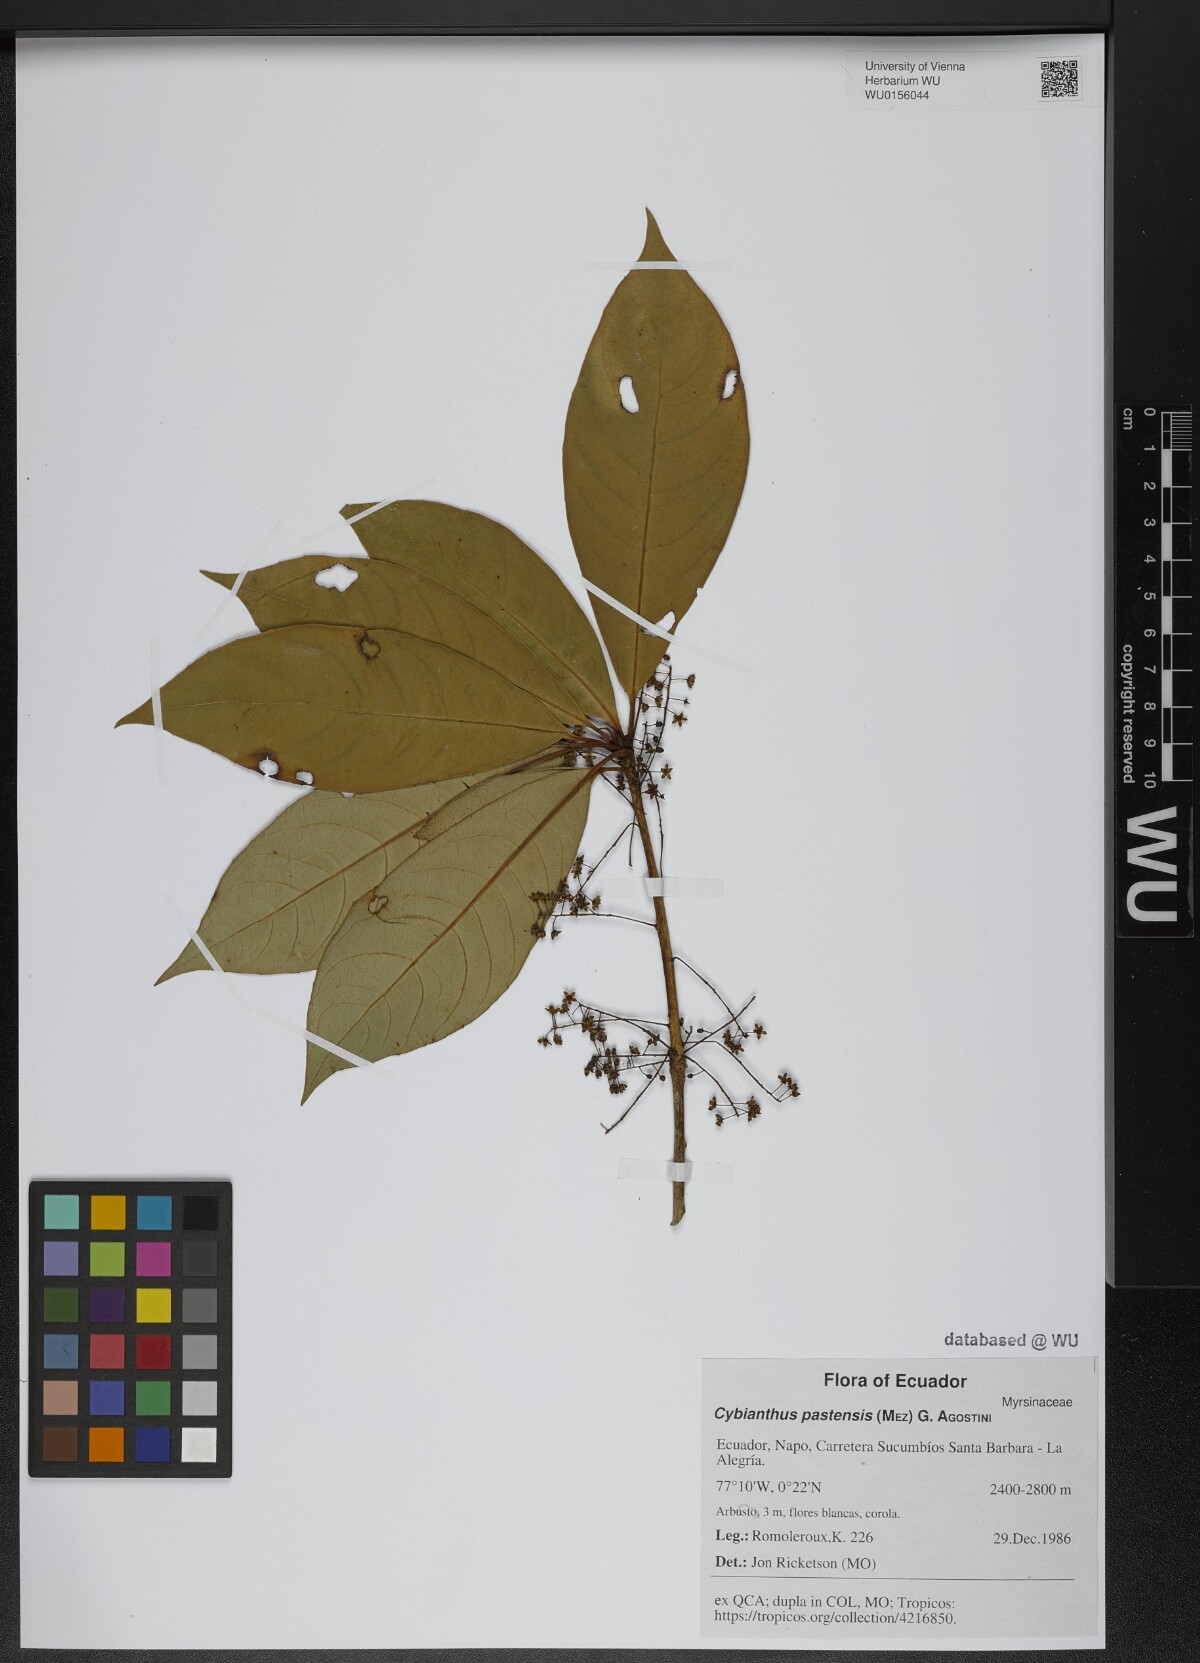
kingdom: Plantae
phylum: Tracheophyta
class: Magnoliopsida
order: Ericales
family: Primulaceae
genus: Cybianthus
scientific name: Cybianthus pastensis
